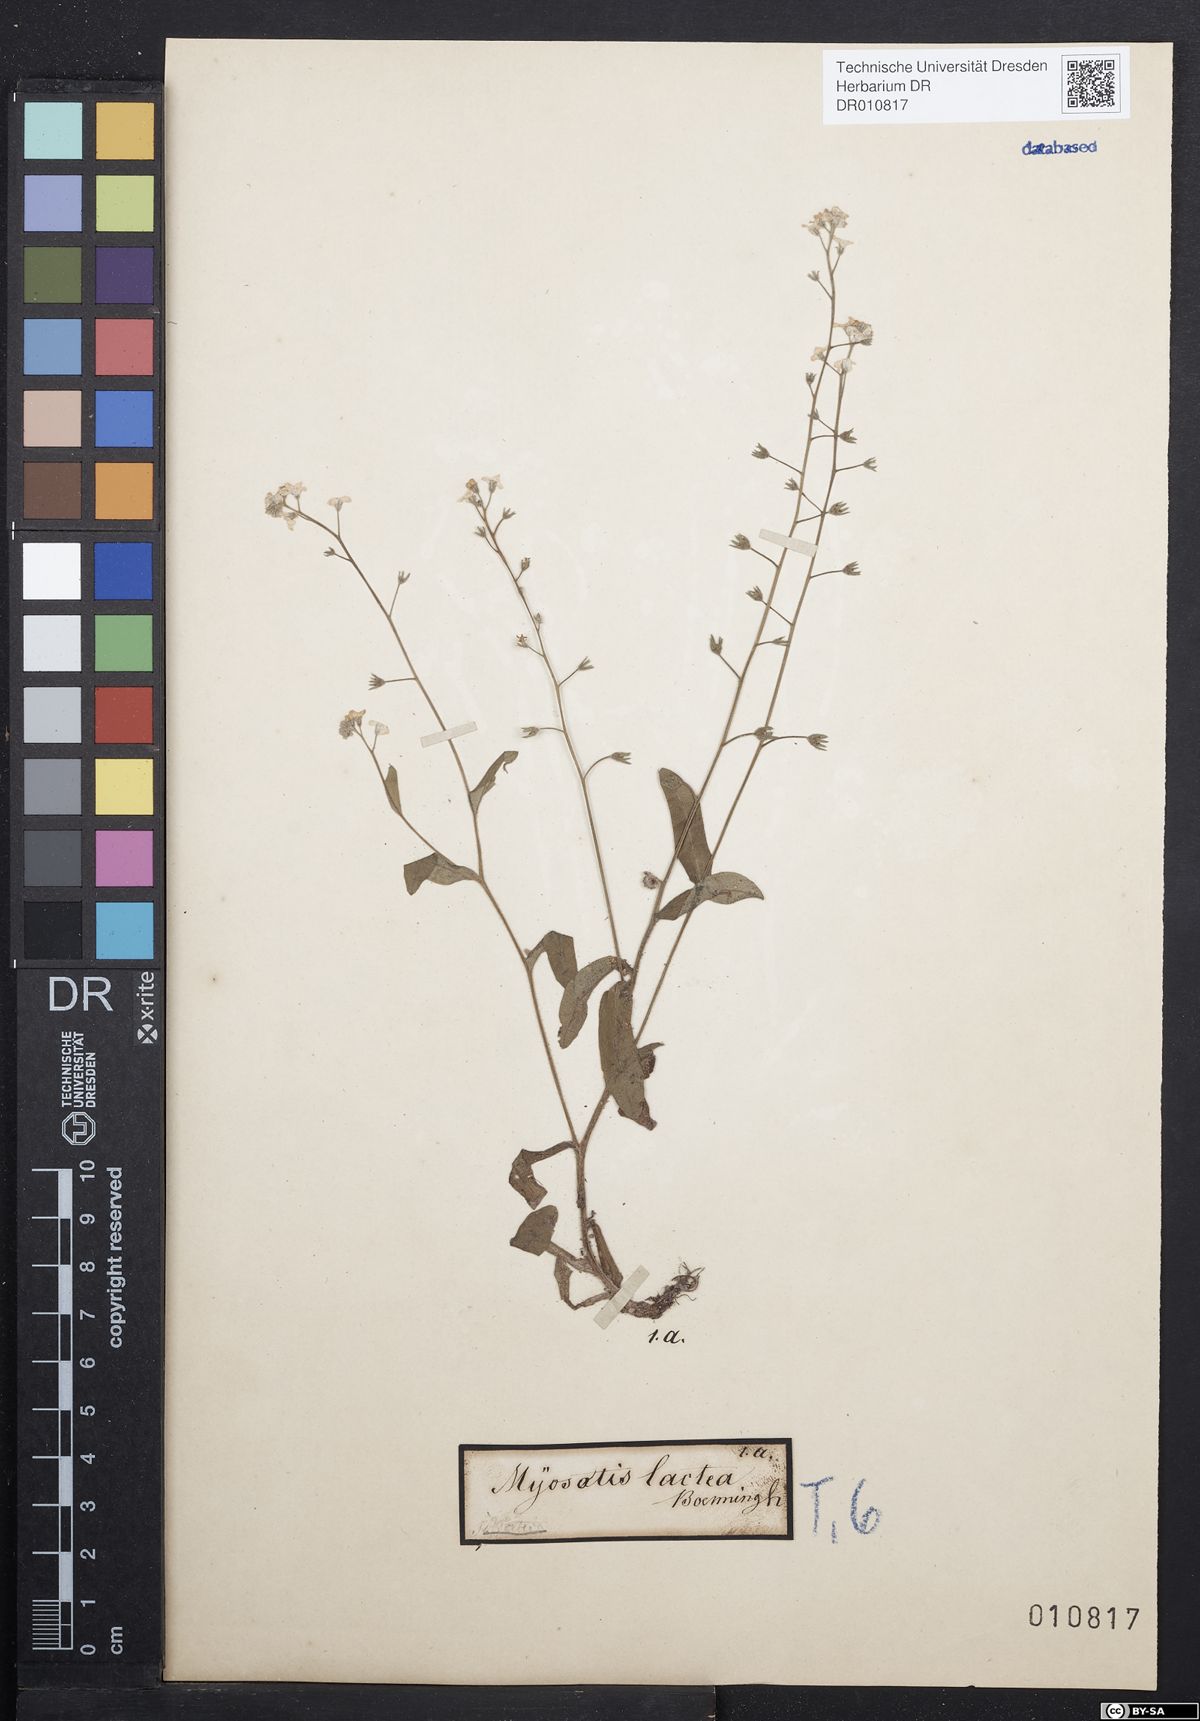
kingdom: Plantae
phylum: Tracheophyta
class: Magnoliopsida
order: Boraginales
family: Boraginaceae
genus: Myosotis
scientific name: Myosotis sylvatica
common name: Wood forget-me-not
